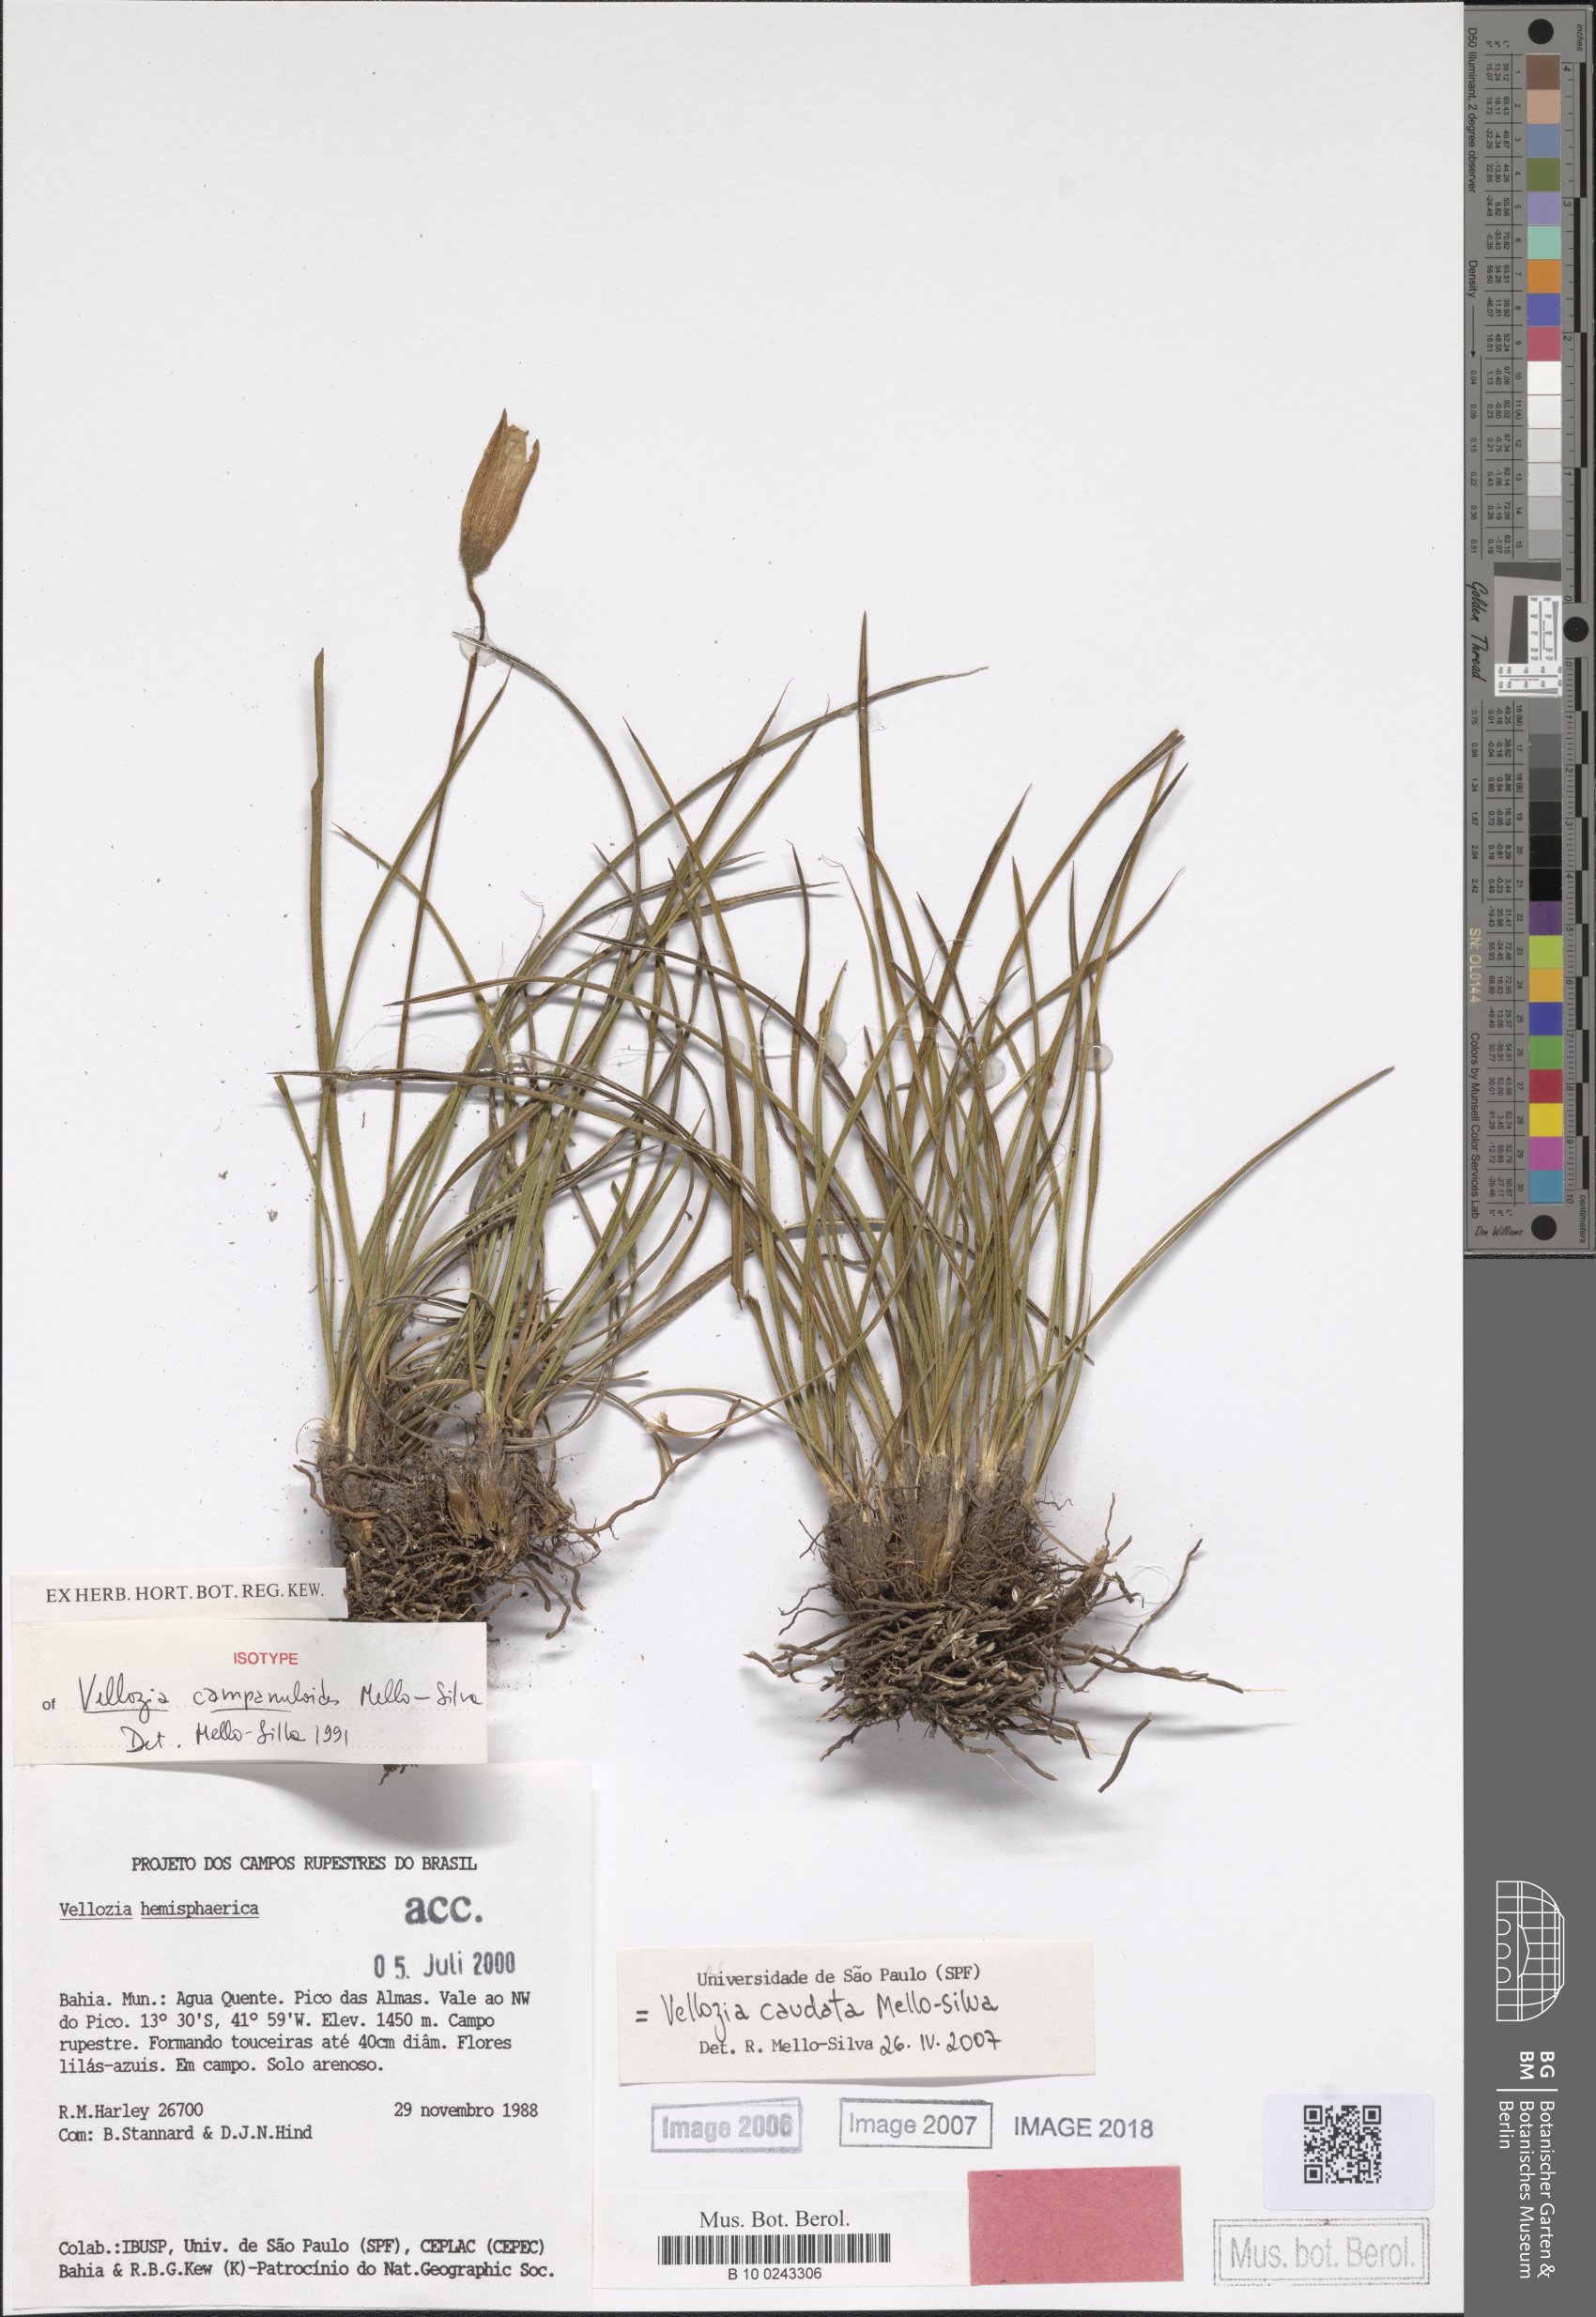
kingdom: Plantae
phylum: Tracheophyta
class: Liliopsida
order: Pandanales
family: Velloziaceae
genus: Vellozia
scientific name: Vellozia caudata
